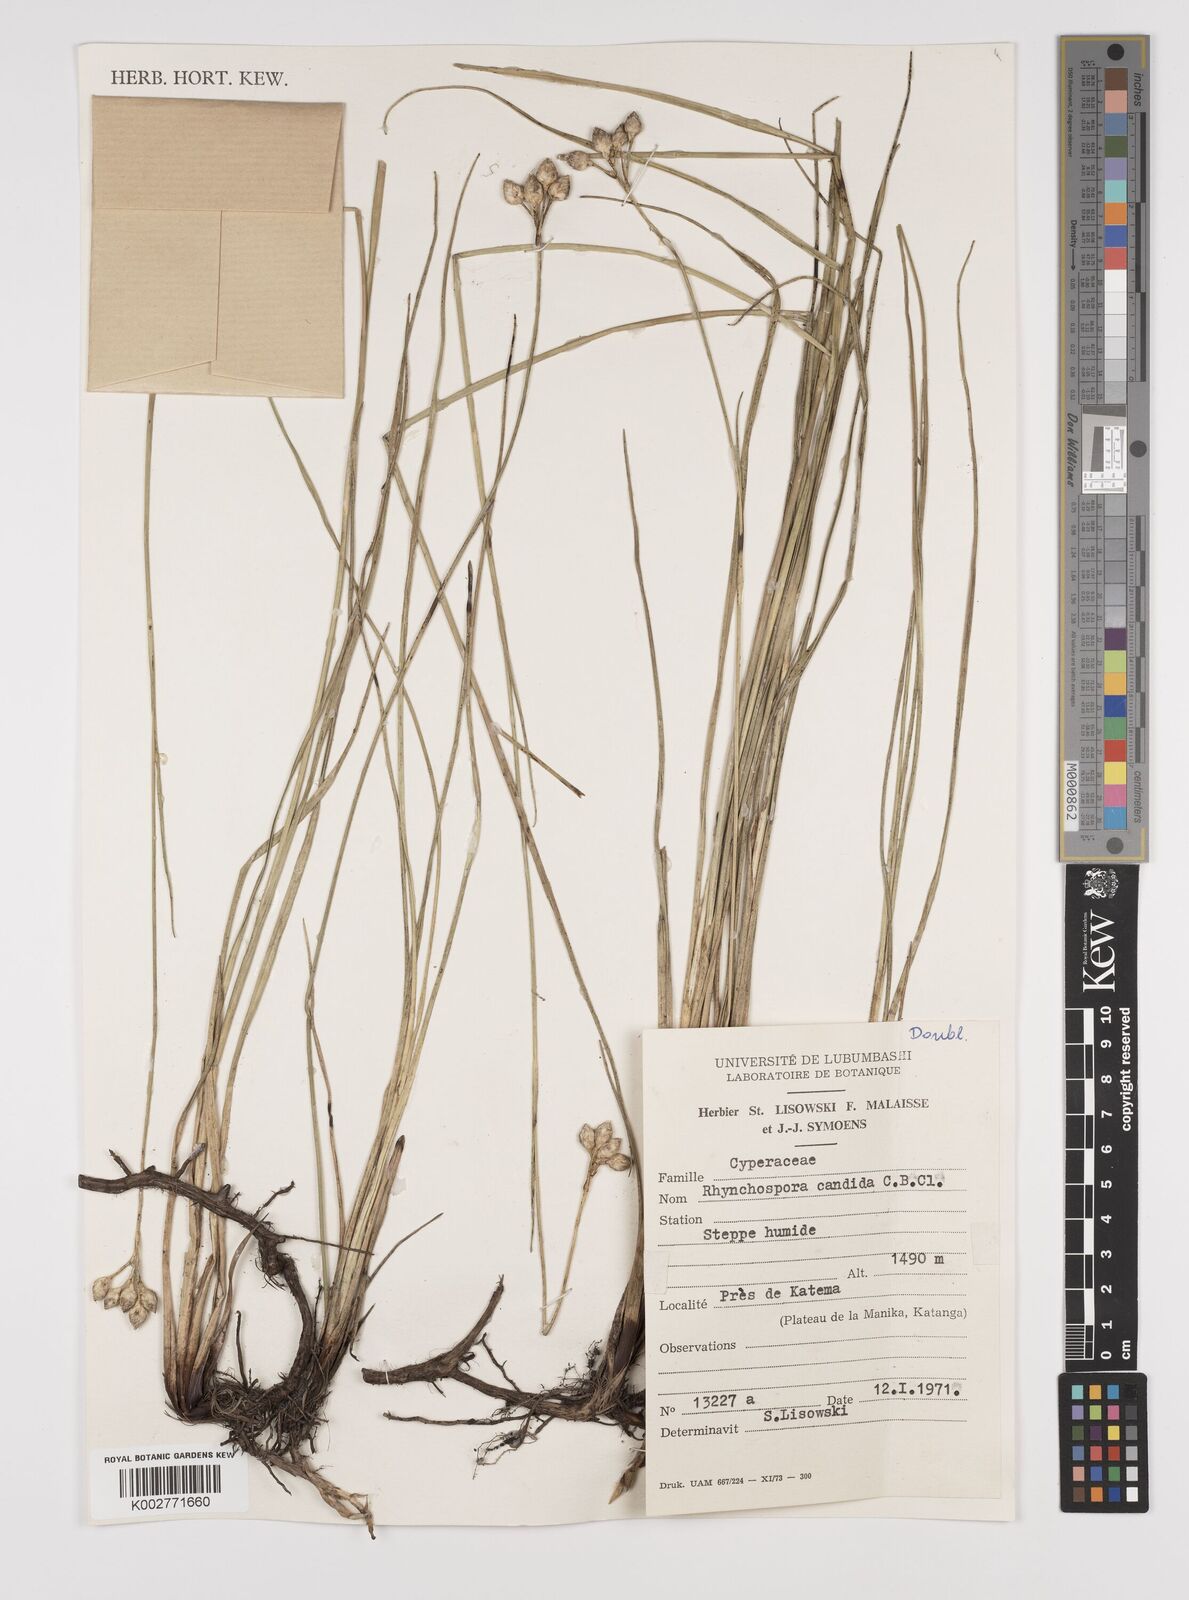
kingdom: Plantae
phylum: Tracheophyta
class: Liliopsida
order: Poales
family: Cyperaceae
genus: Rhynchospora
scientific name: Rhynchospora candida
